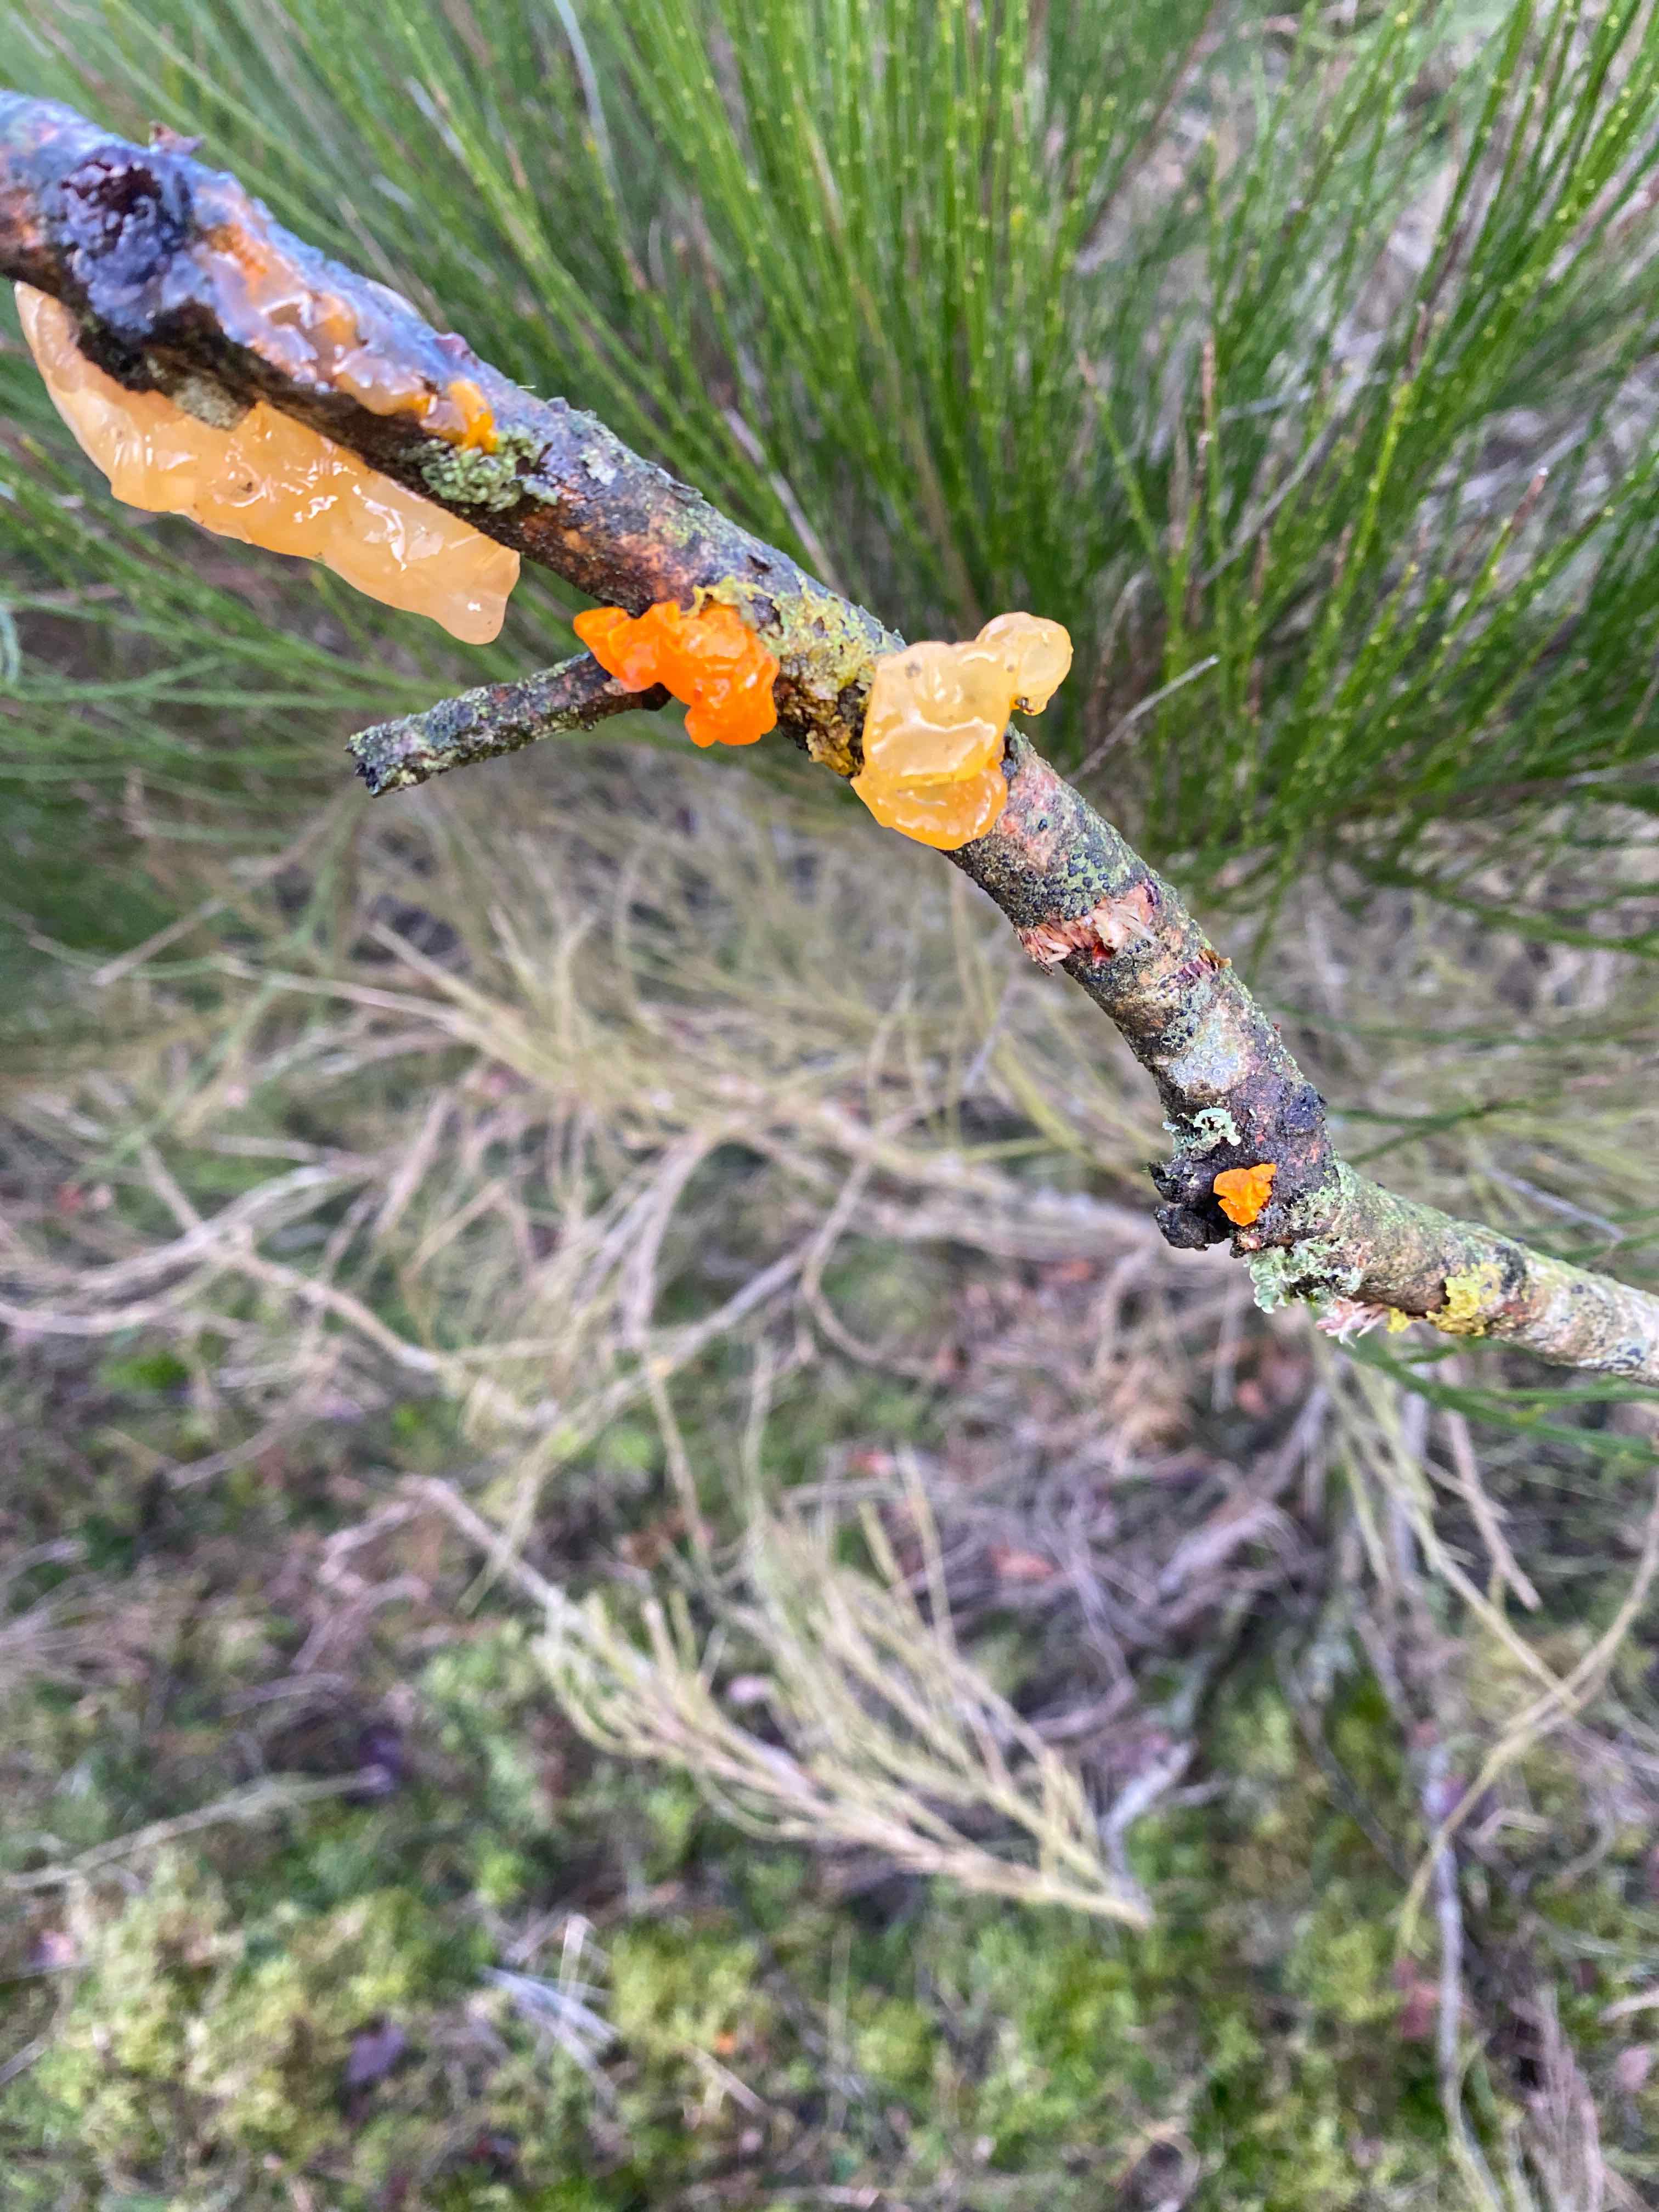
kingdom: Fungi
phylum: Basidiomycota
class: Tremellomycetes
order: Tremellales
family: Tremellaceae
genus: Tremella
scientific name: Tremella mesenterica
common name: gul bævresvamp
